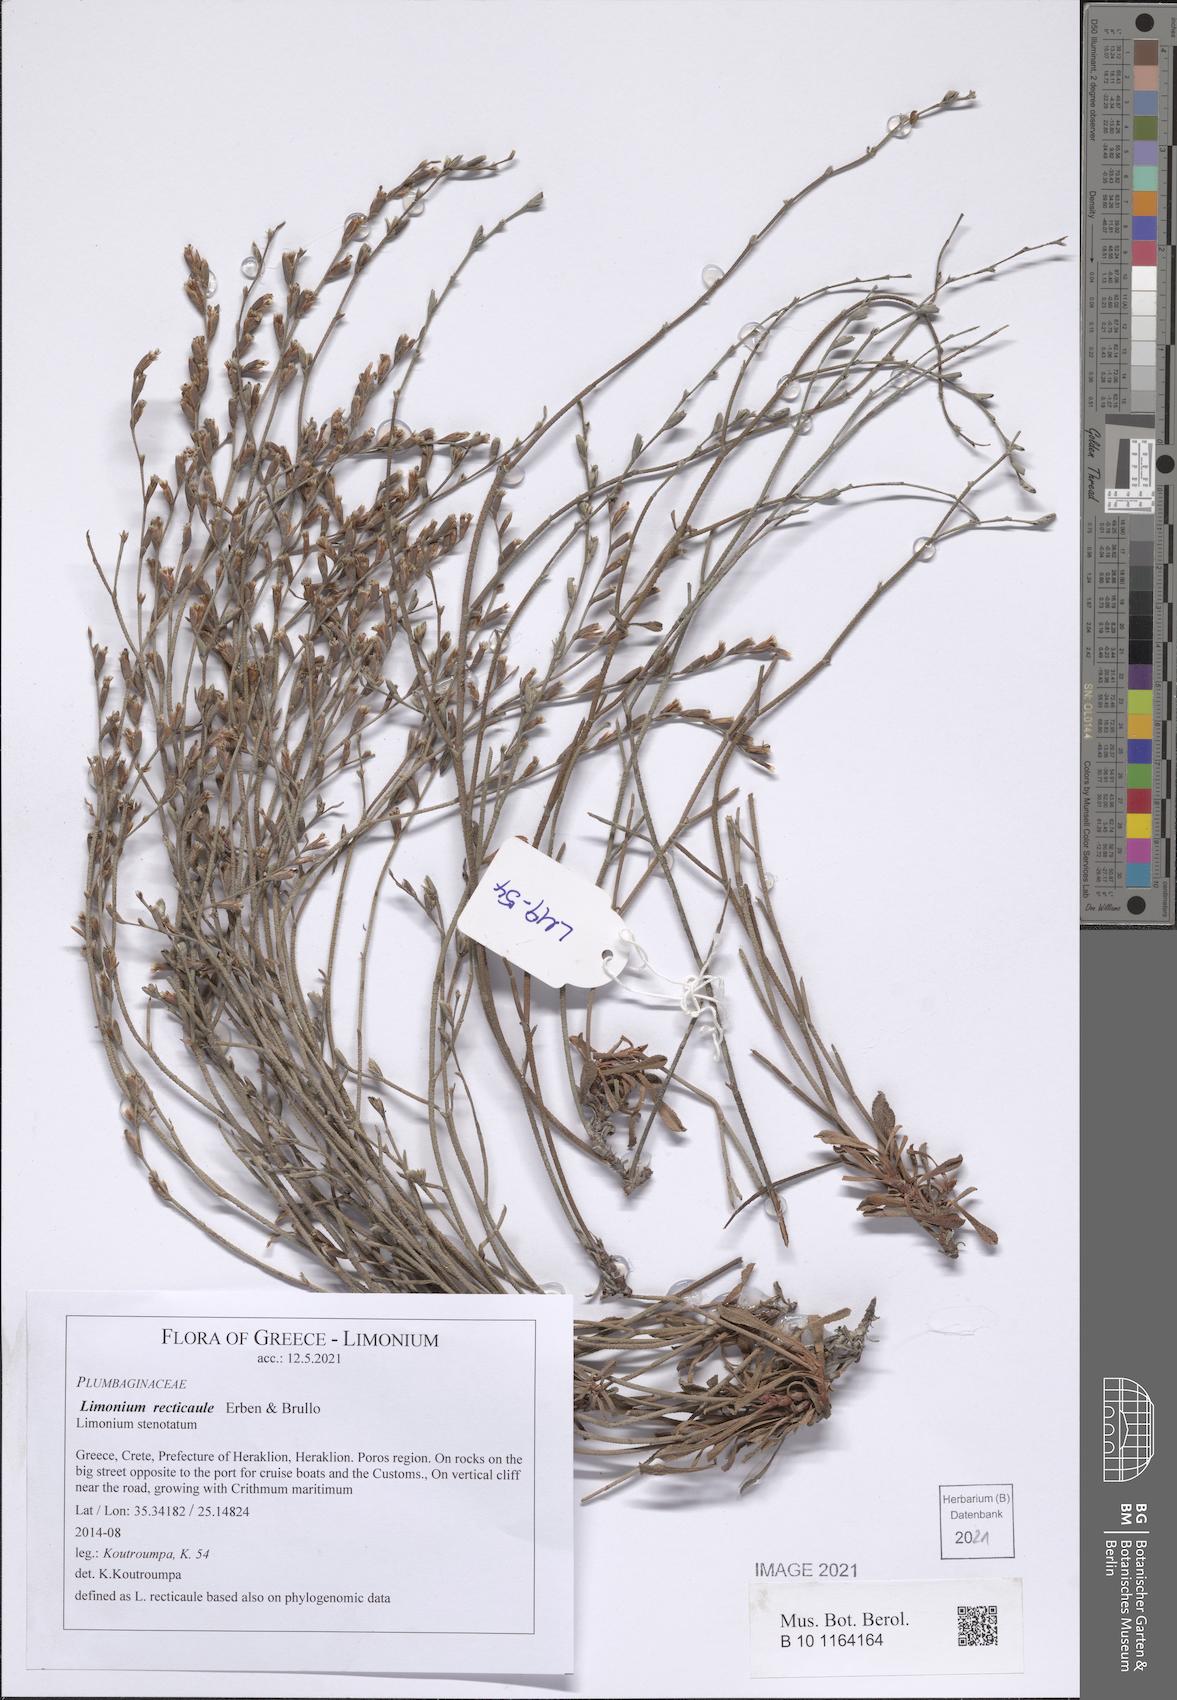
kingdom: Plantae
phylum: Tracheophyta
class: Magnoliopsida
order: Caryophyllales
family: Plumbaginaceae
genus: Limonium
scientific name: Limonium recticaule
